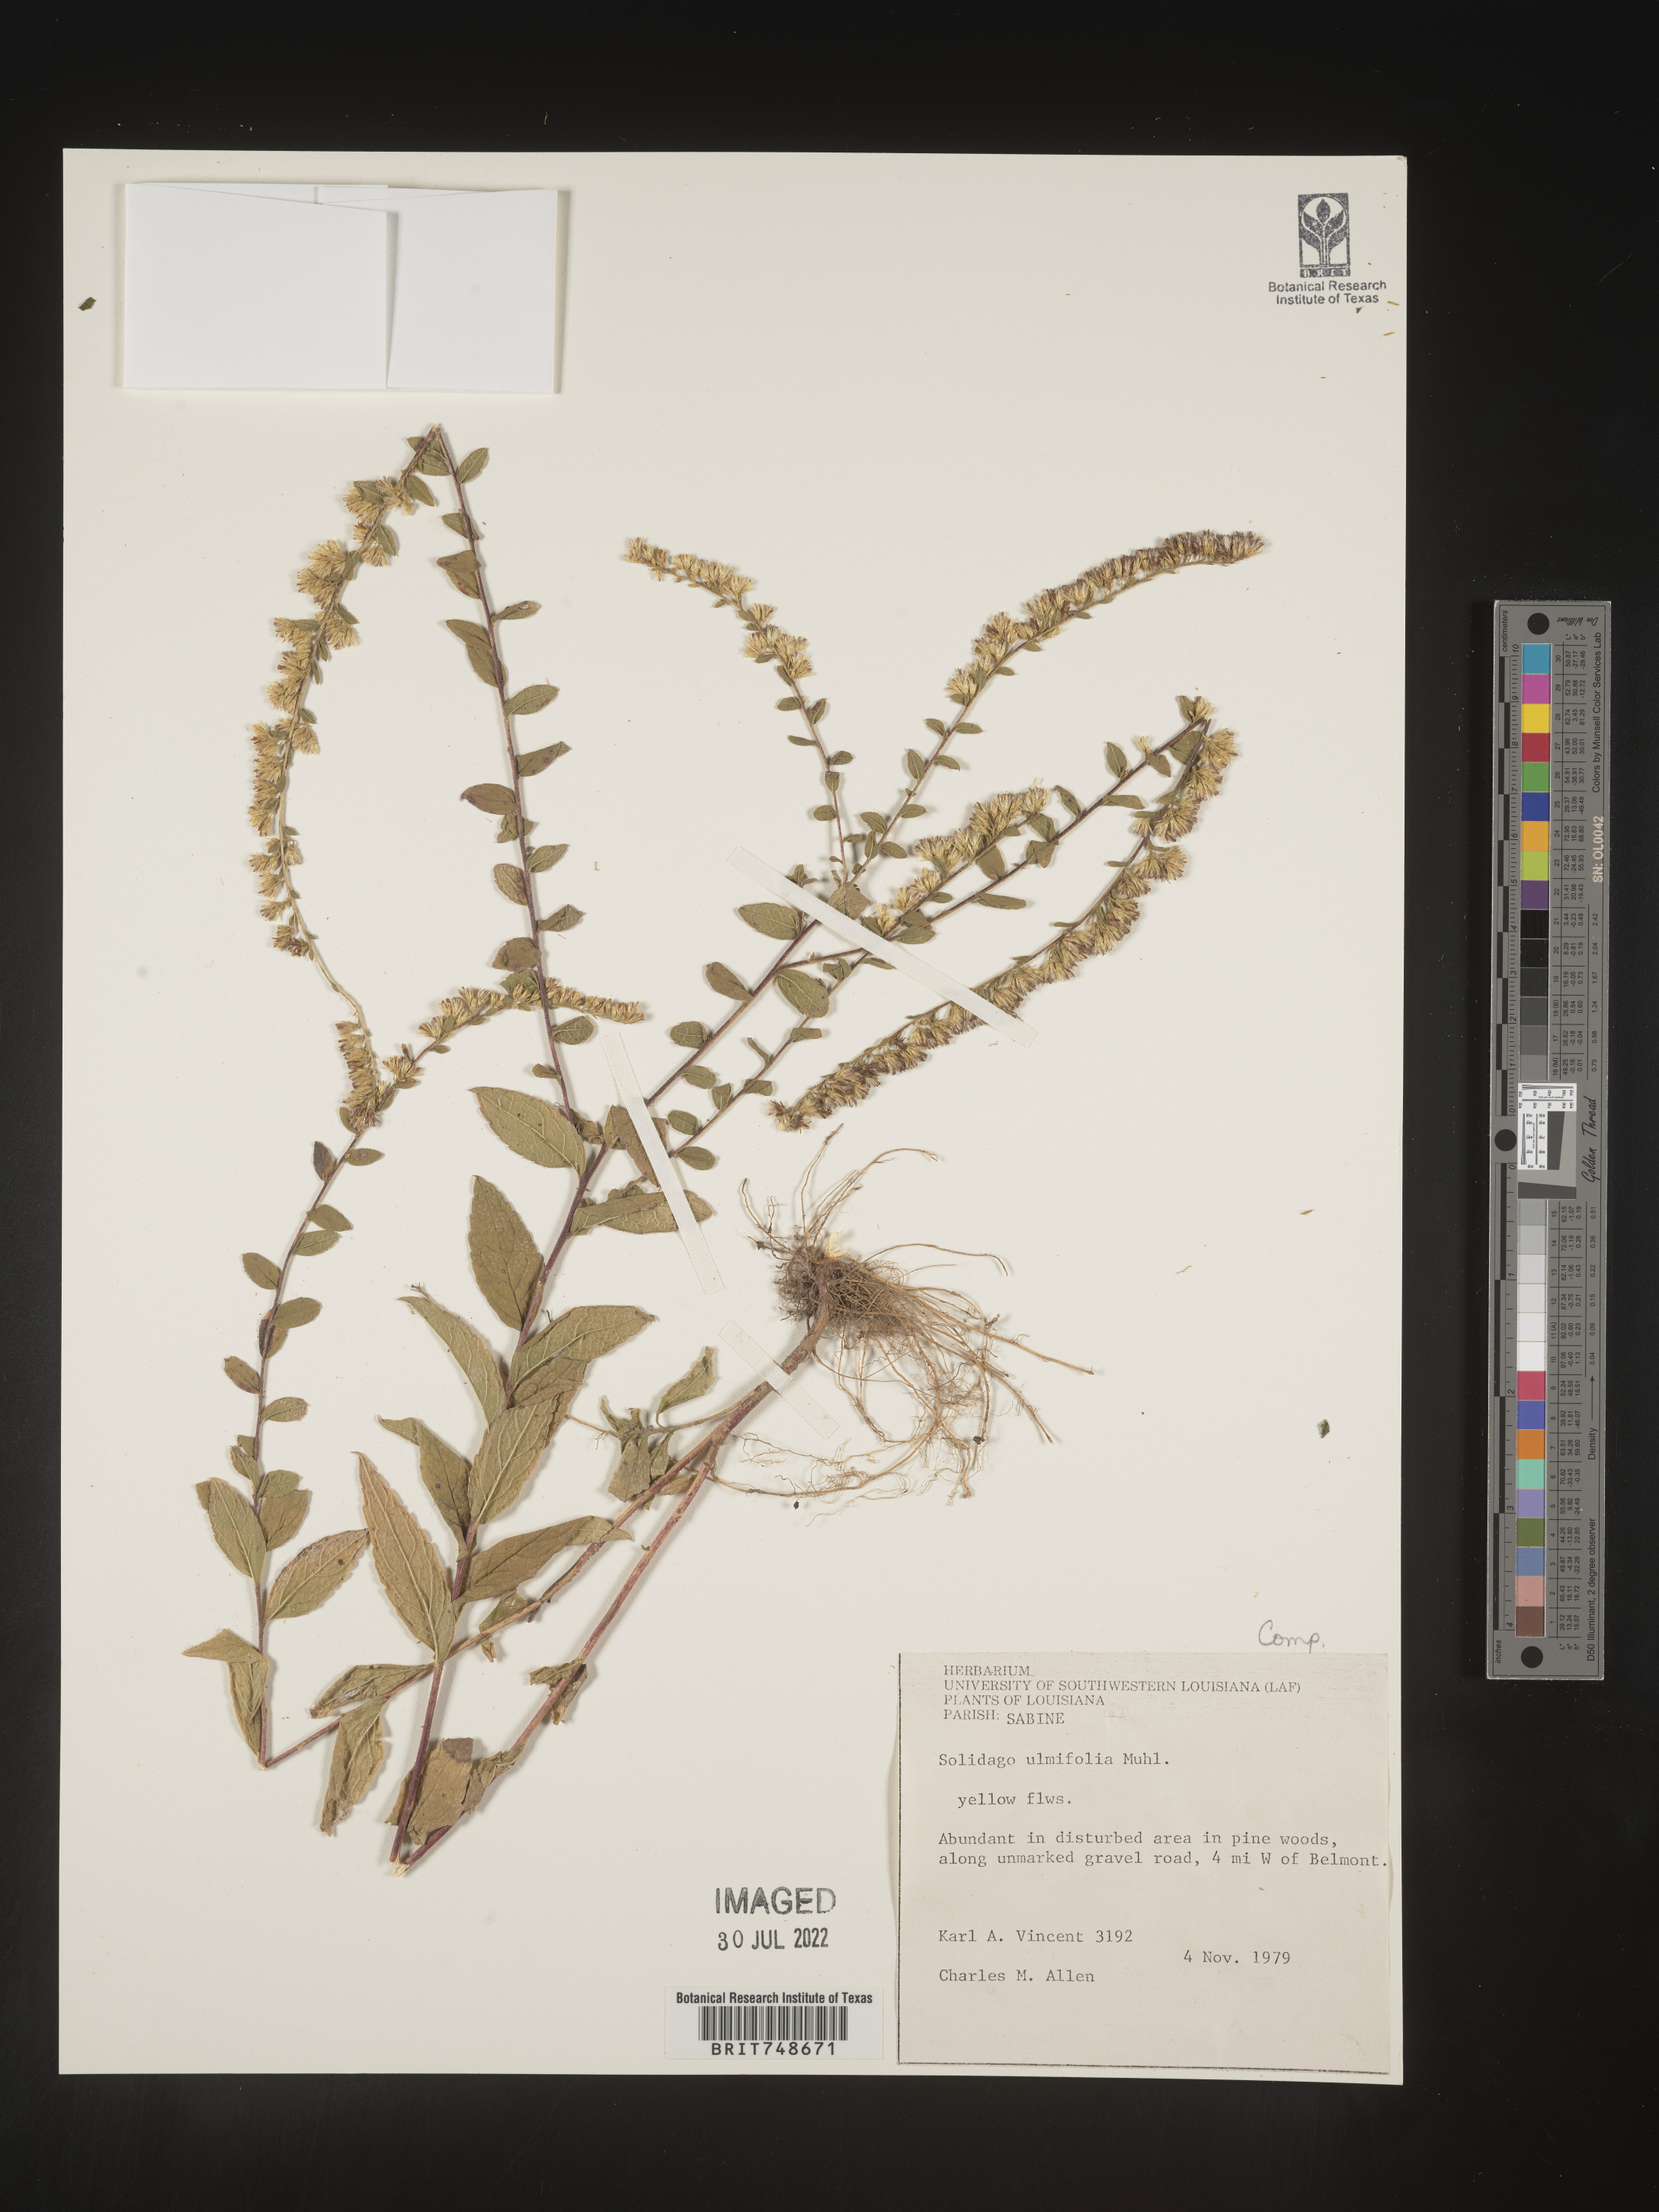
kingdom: Plantae
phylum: Tracheophyta
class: Magnoliopsida
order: Asterales
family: Asteraceae
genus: Solidago
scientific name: Solidago rugosa
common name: Rough-stemmed goldenrod
